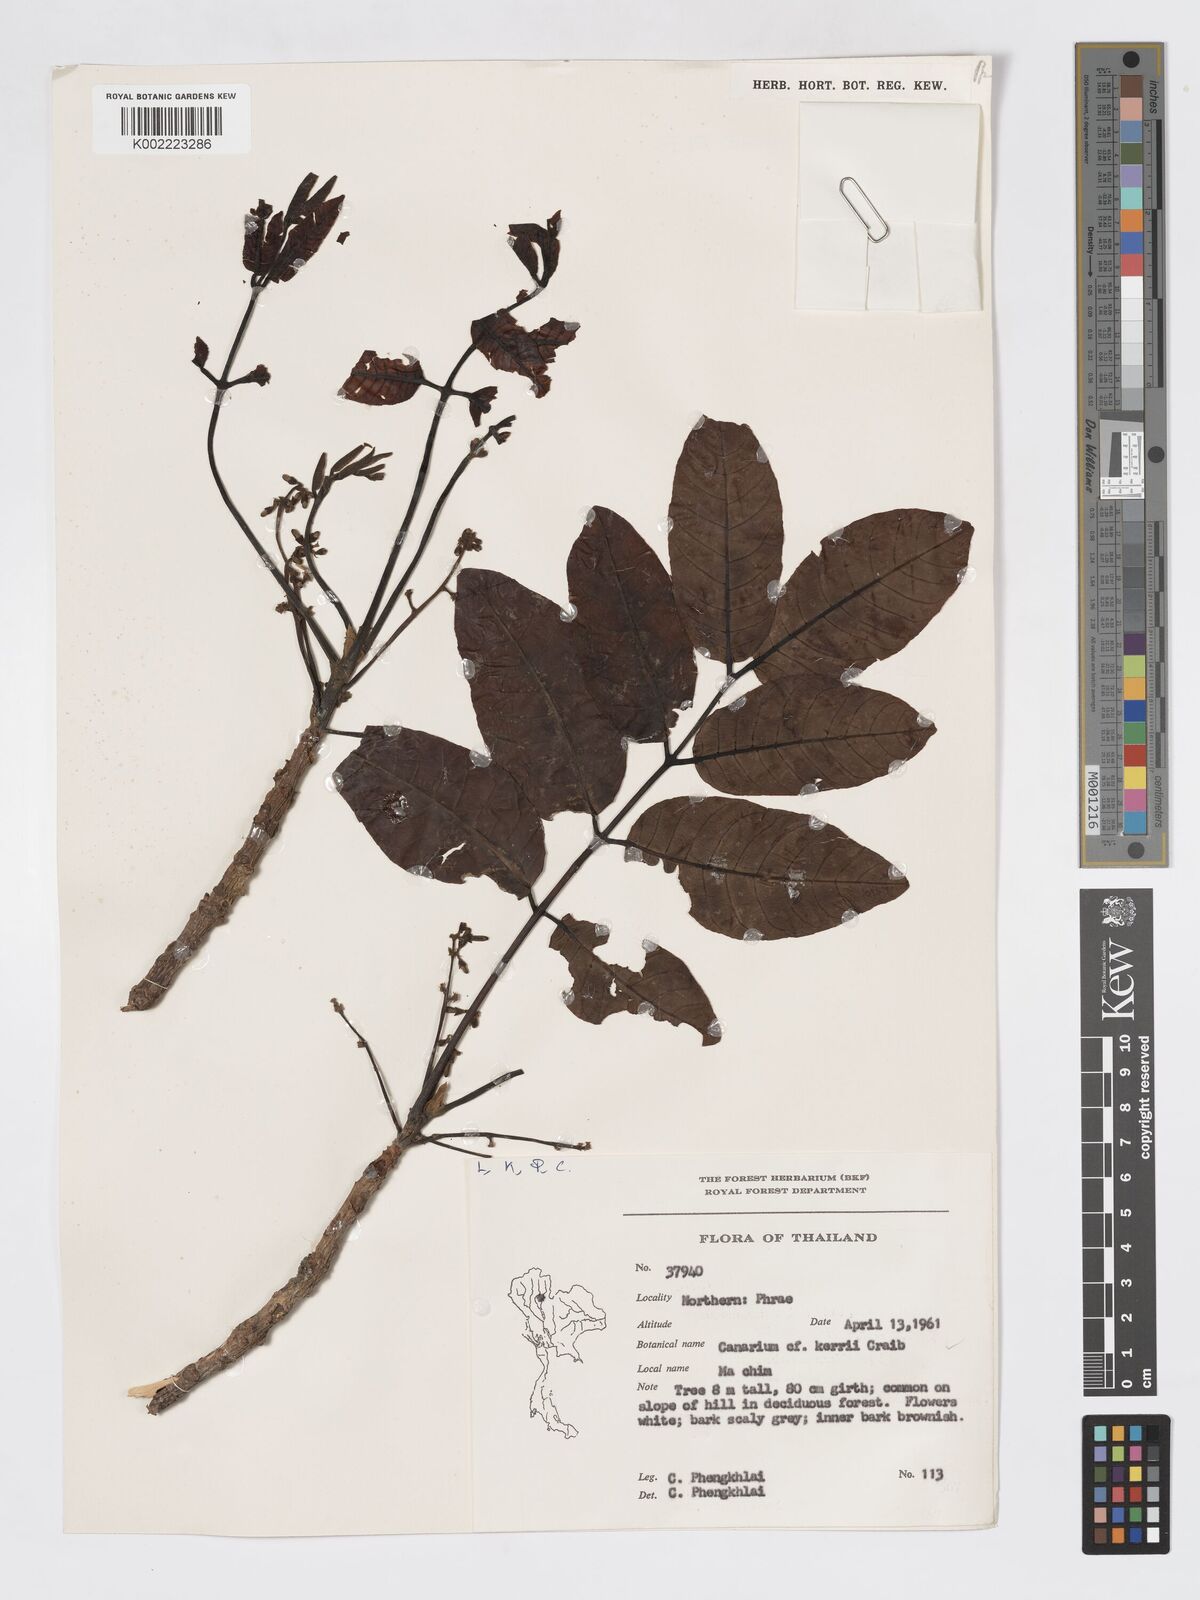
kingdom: Plantae
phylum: Tracheophyta
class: Magnoliopsida
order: Sapindales
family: Burseraceae
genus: Canarium
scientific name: Canarium subulatum
